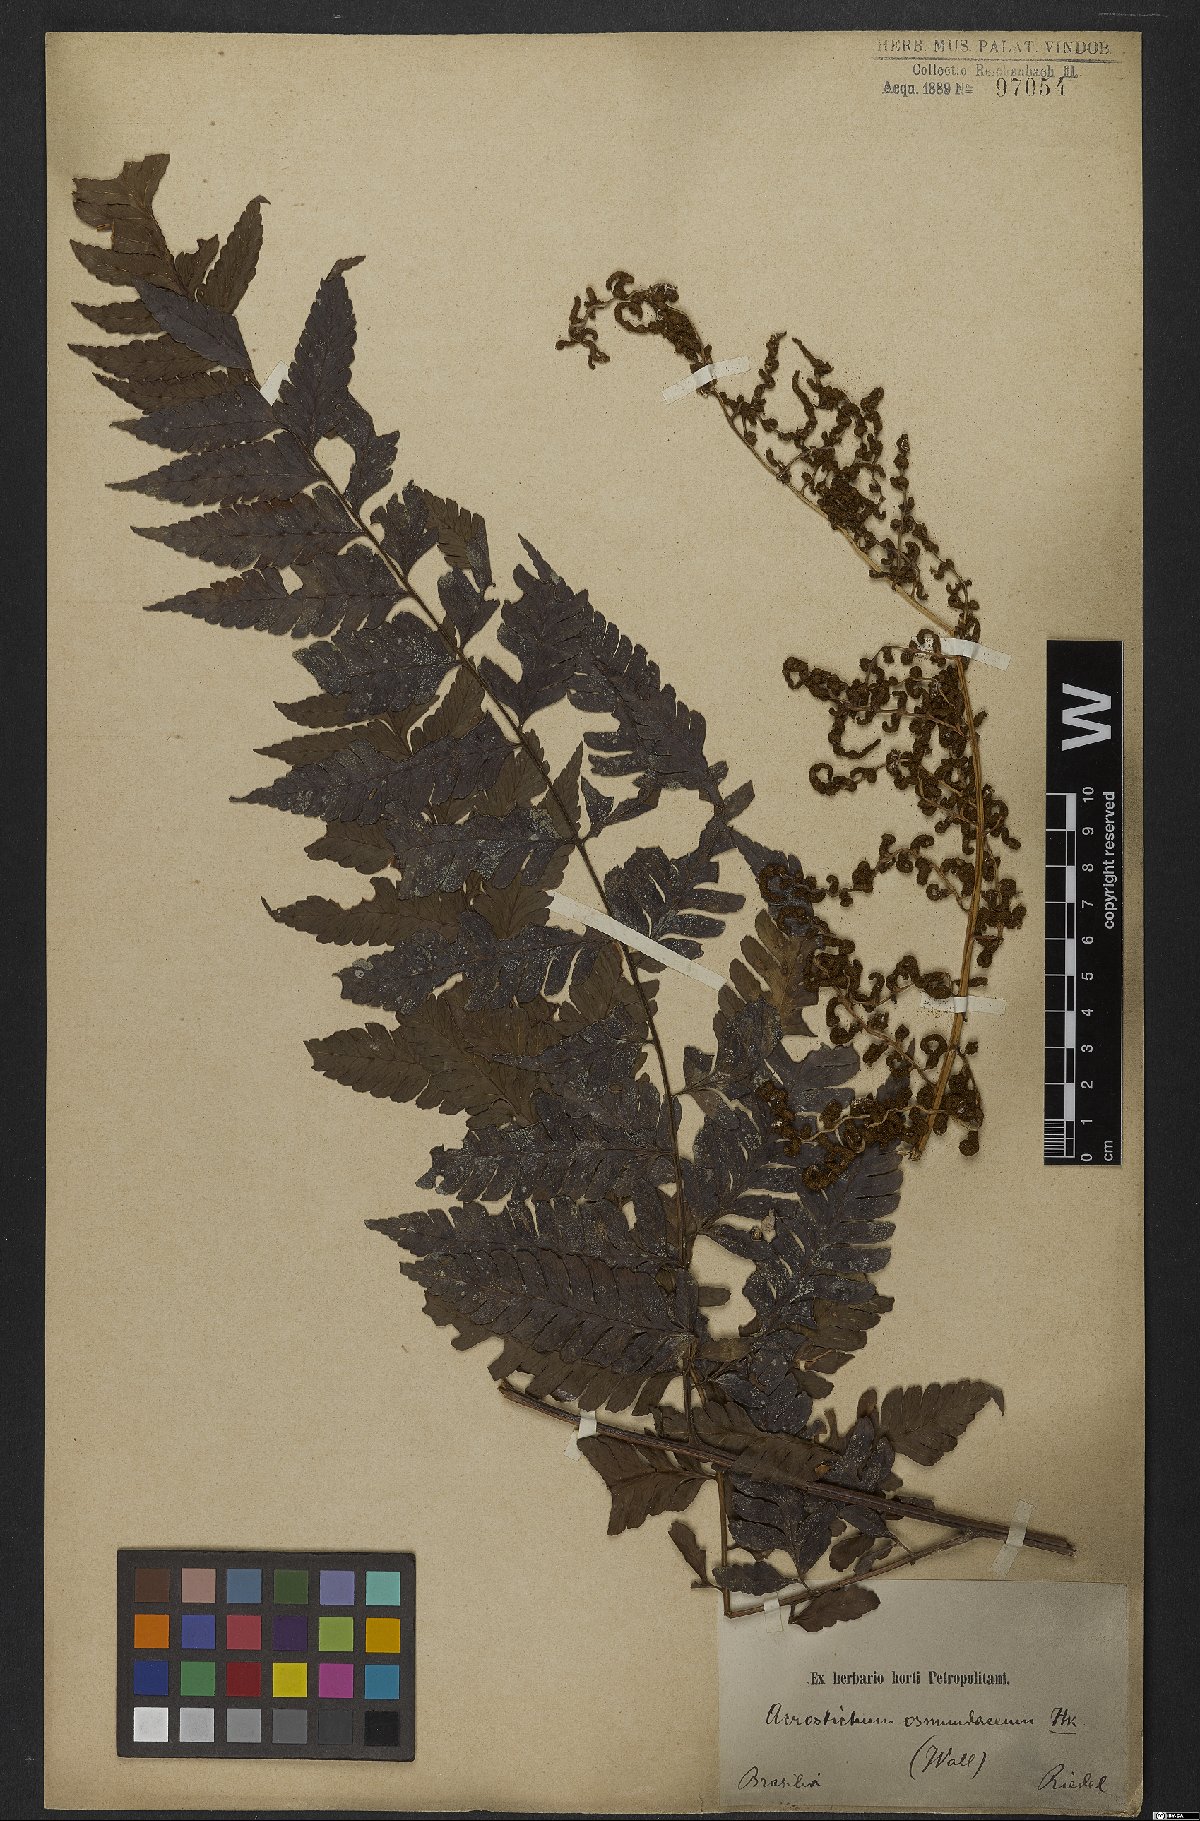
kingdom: Plantae
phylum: Tracheophyta
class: Polypodiopsida
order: Polypodiales
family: Dryopteridaceae
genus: Polybotrya
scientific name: Polybotrya osmundacea
